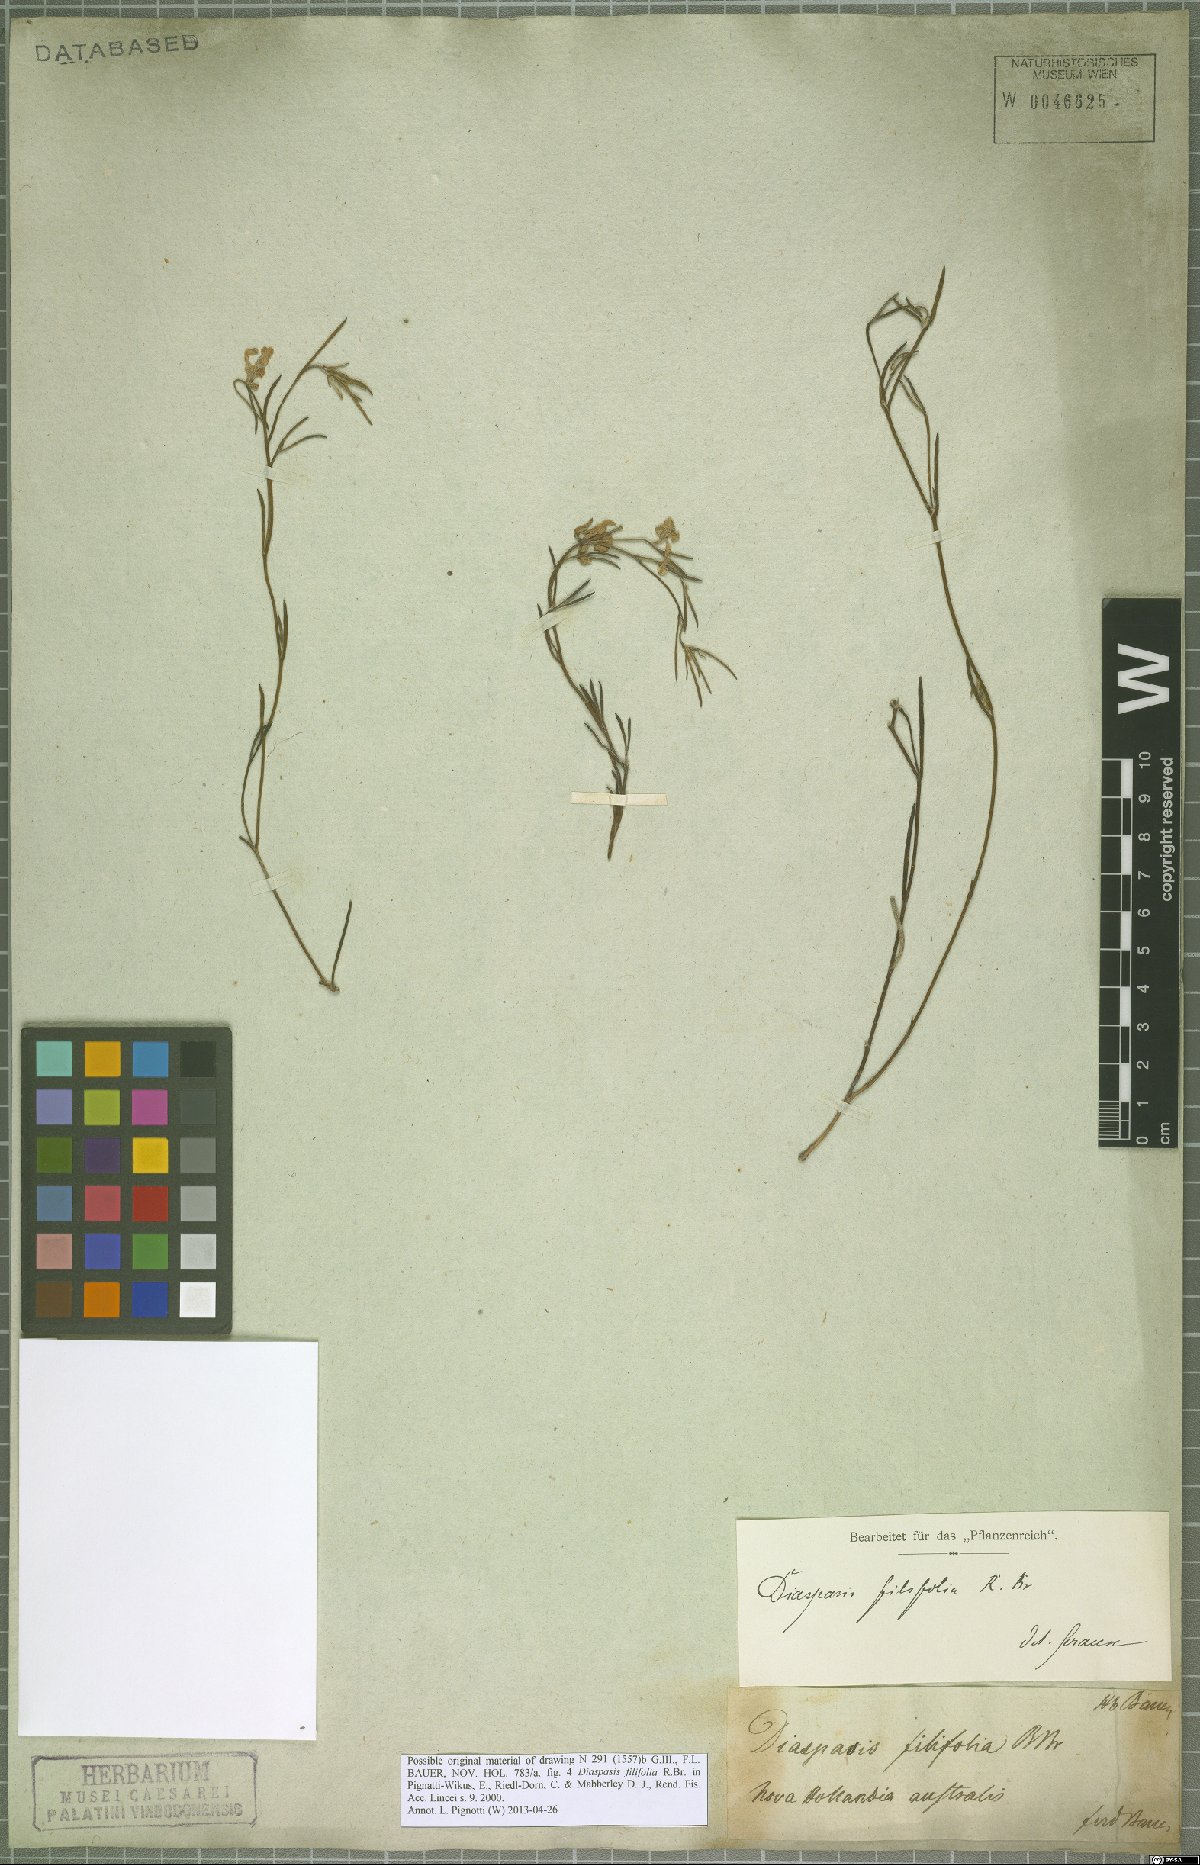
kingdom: Plantae
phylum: Tracheophyta
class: Magnoliopsida
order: Asterales
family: Goodeniaceae
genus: Scaevola
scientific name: Scaevola filifolia
